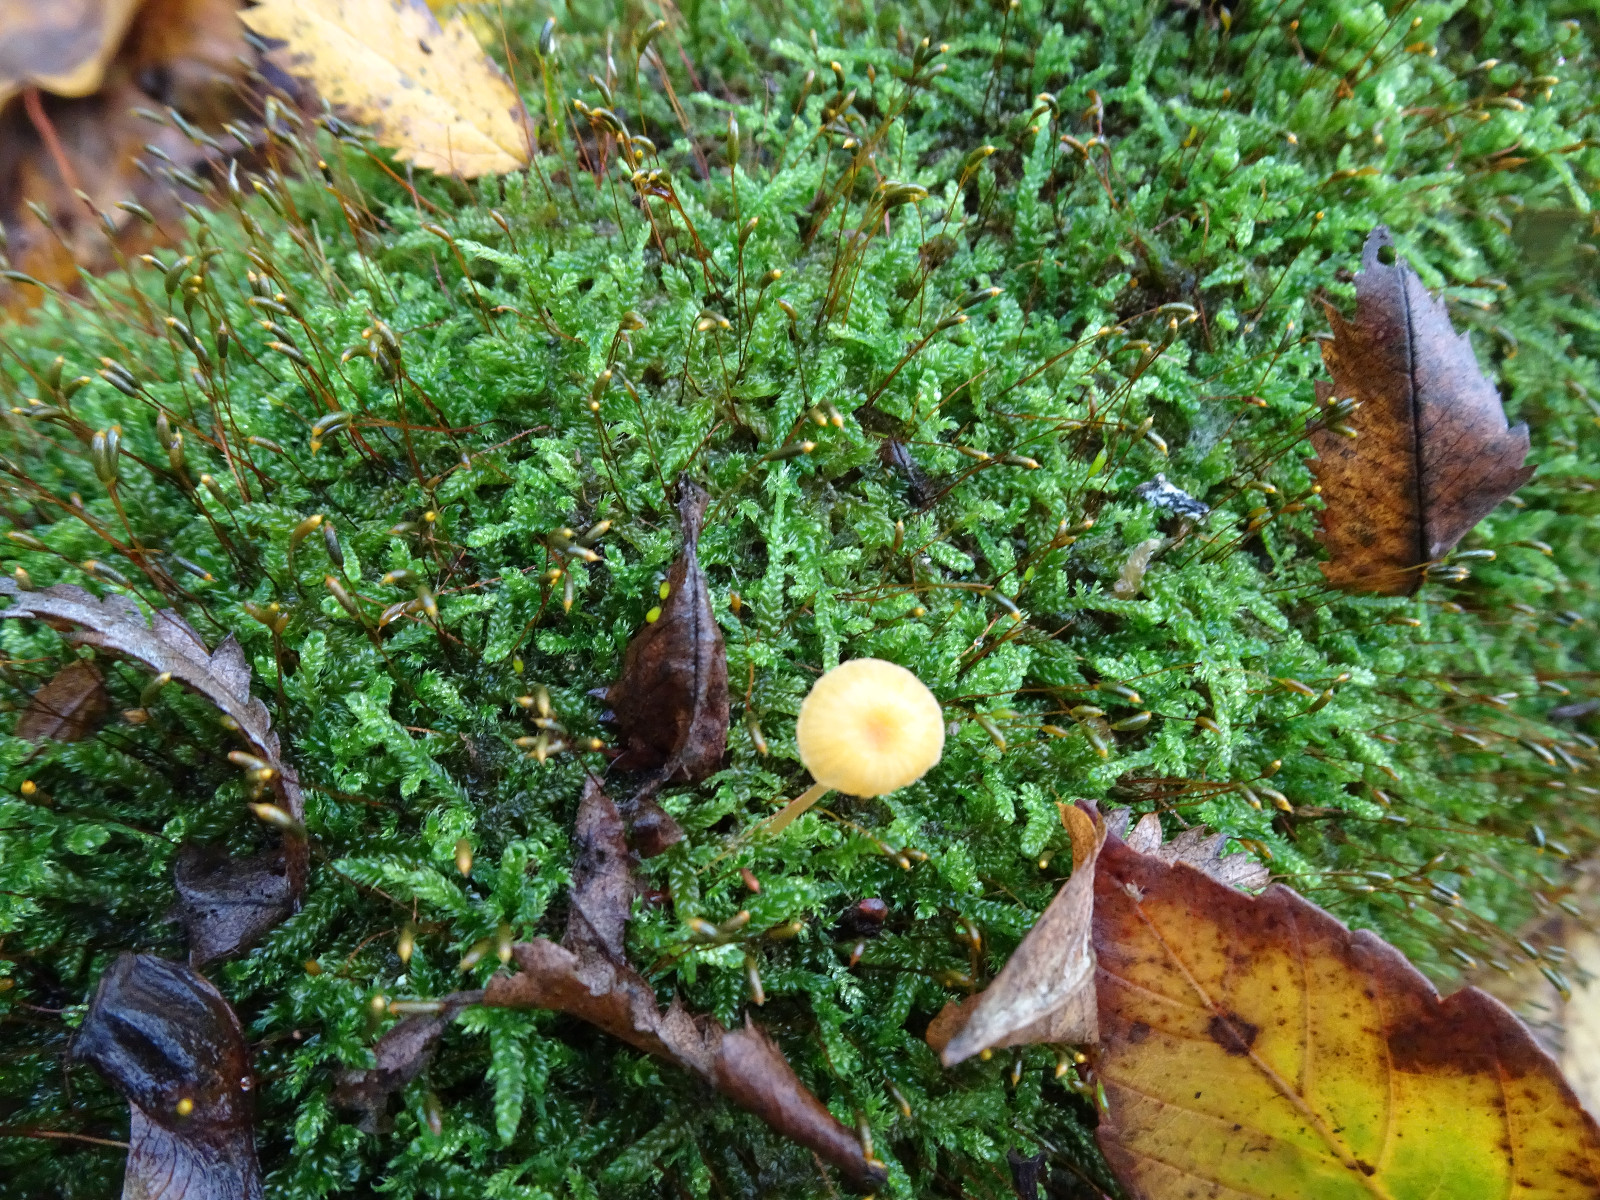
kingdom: Fungi
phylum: Basidiomycota
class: Agaricomycetes
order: Hymenochaetales
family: Rickenellaceae
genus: Rickenella
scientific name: Rickenella fibula
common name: orange mosnavlehat
